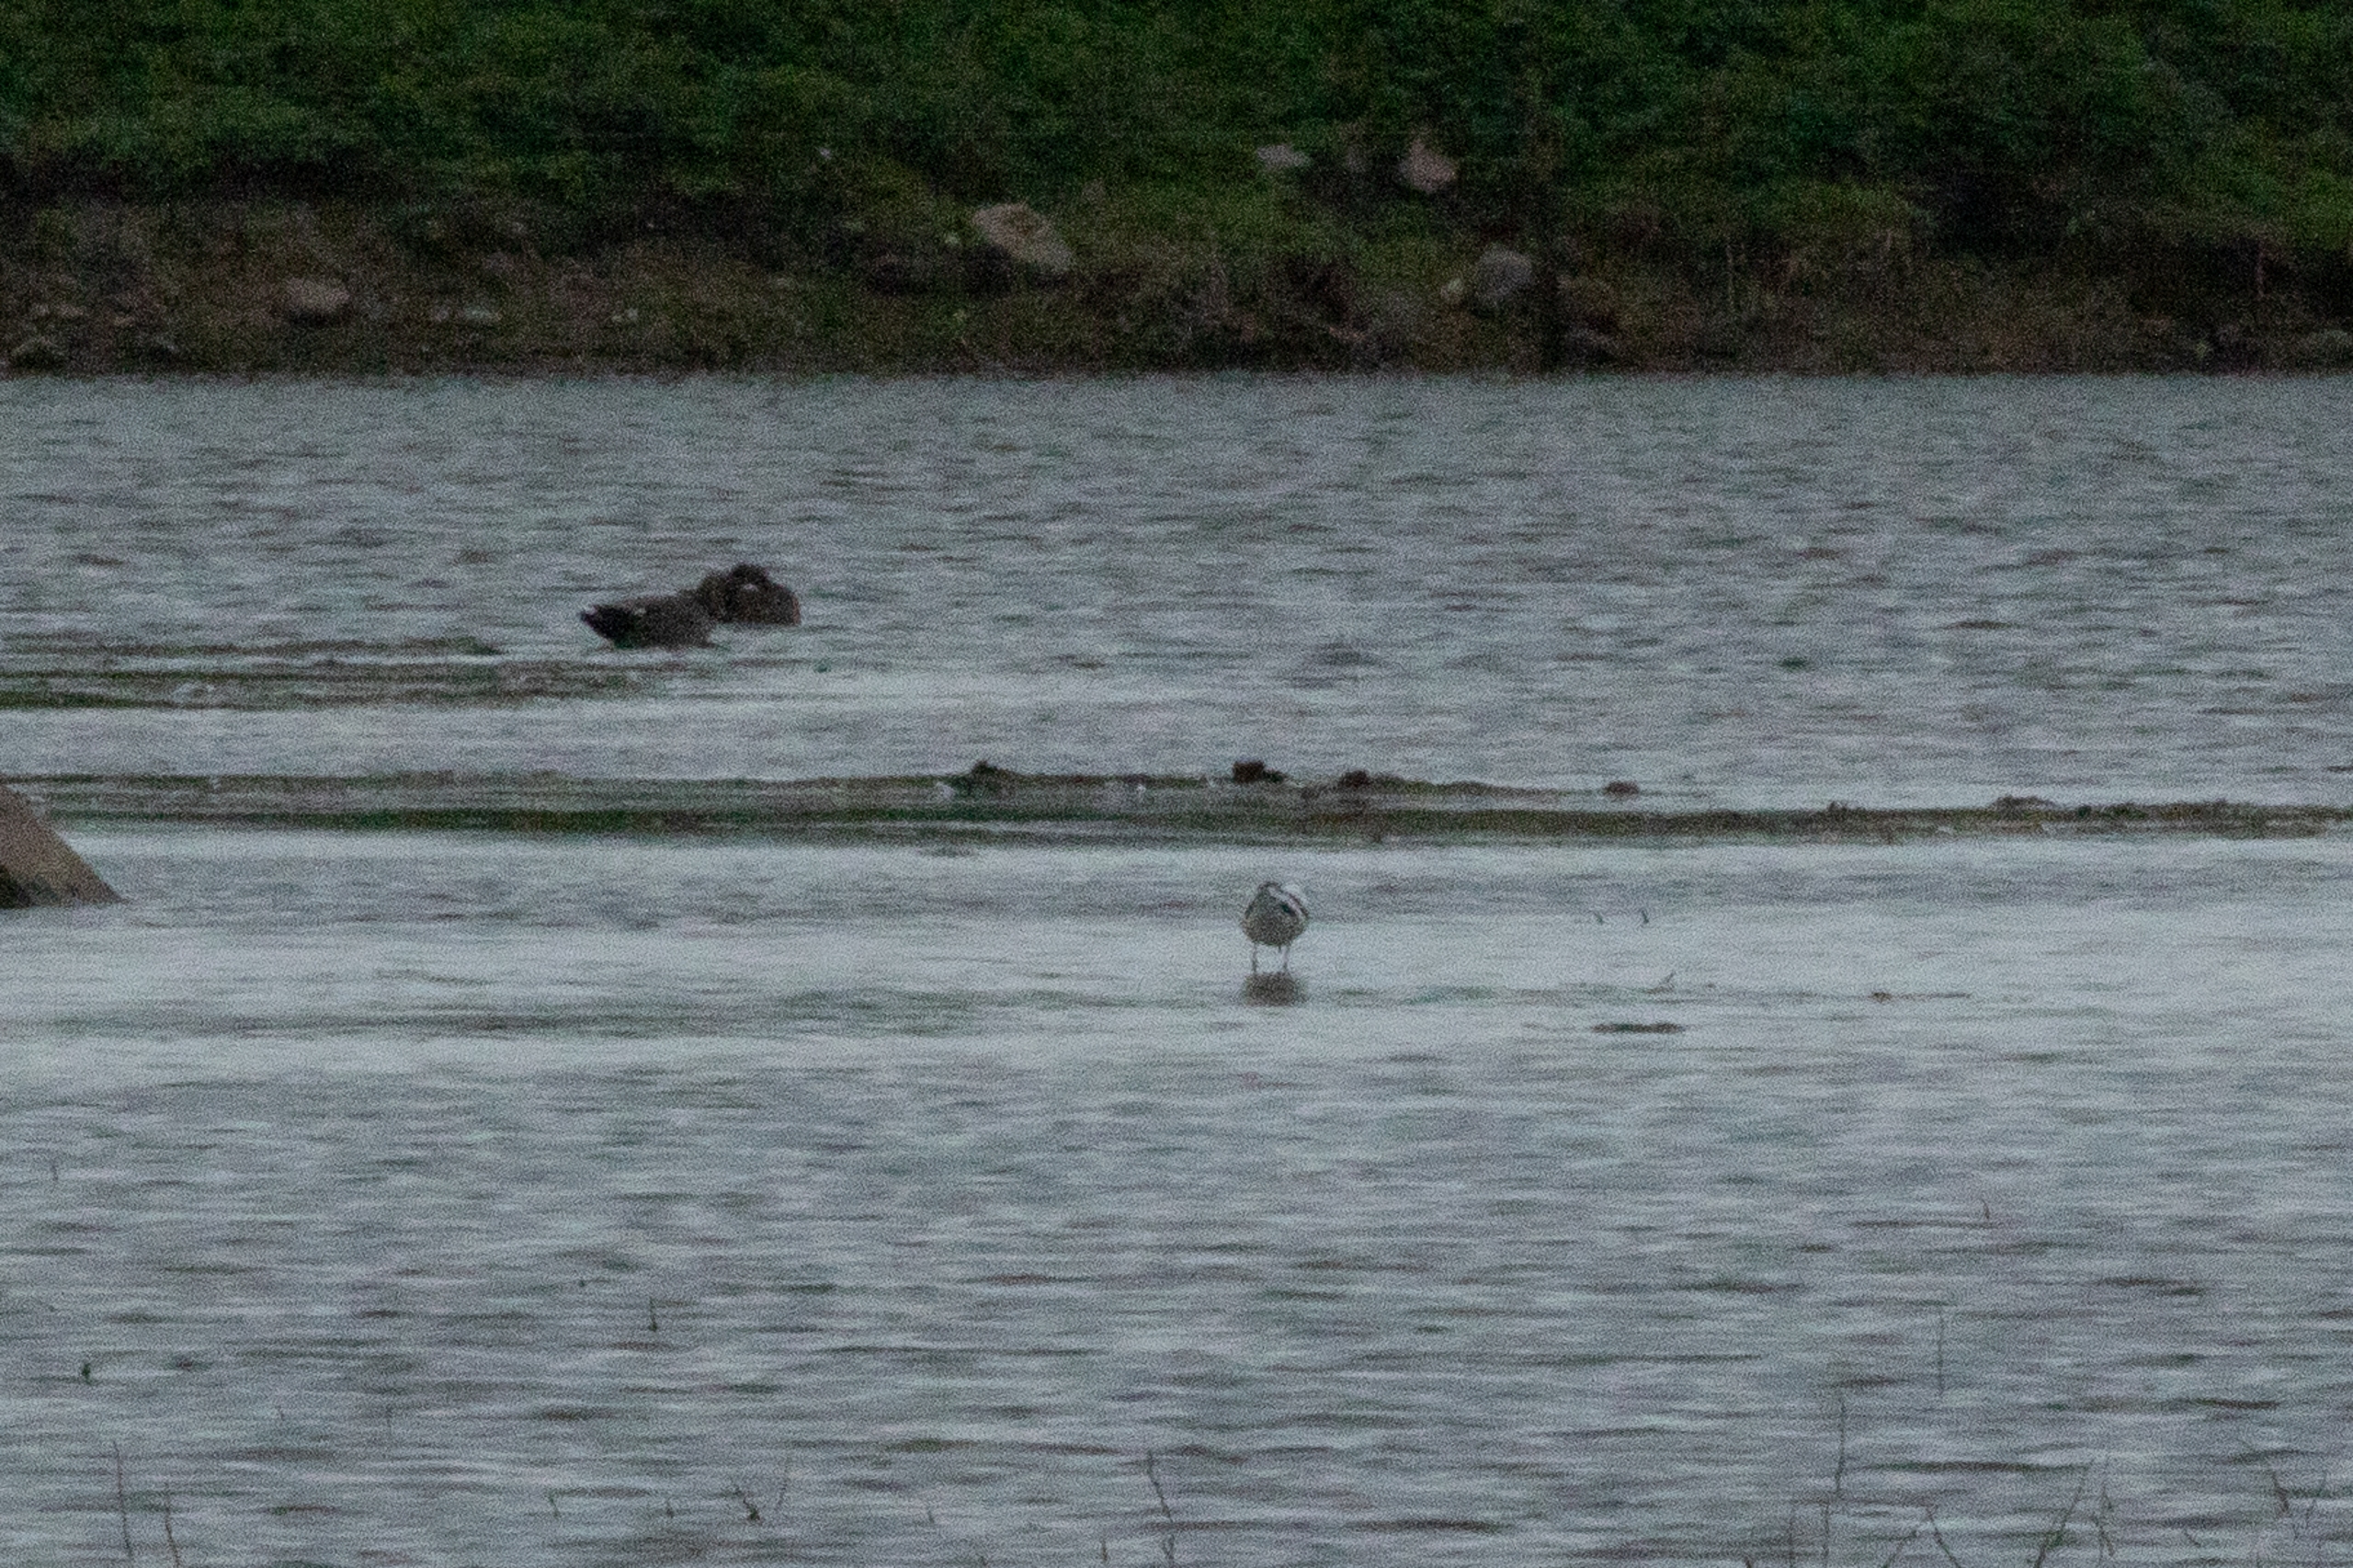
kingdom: Animalia
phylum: Chordata
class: Aves
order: Charadriiformes
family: Recurvirostridae
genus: Recurvirostra
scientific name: Recurvirostra avosetta
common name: Klyde
